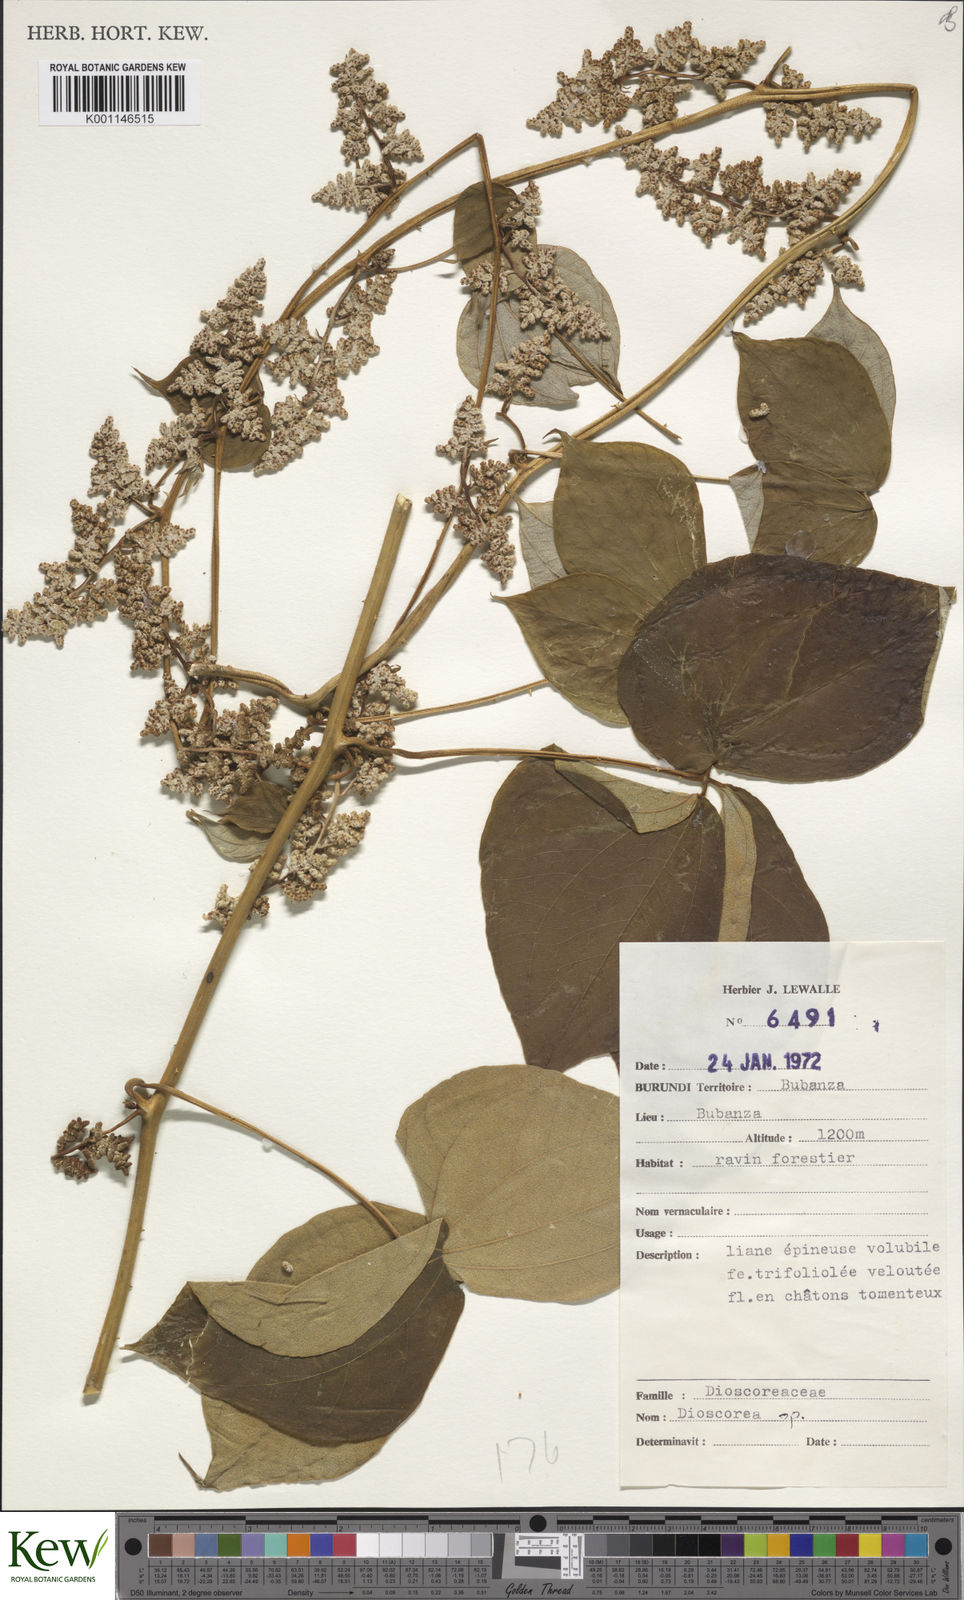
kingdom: Plantae
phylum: Tracheophyta
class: Liliopsida
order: Dioscoreales
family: Dioscoreaceae
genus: Dioscorea
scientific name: Dioscorea
